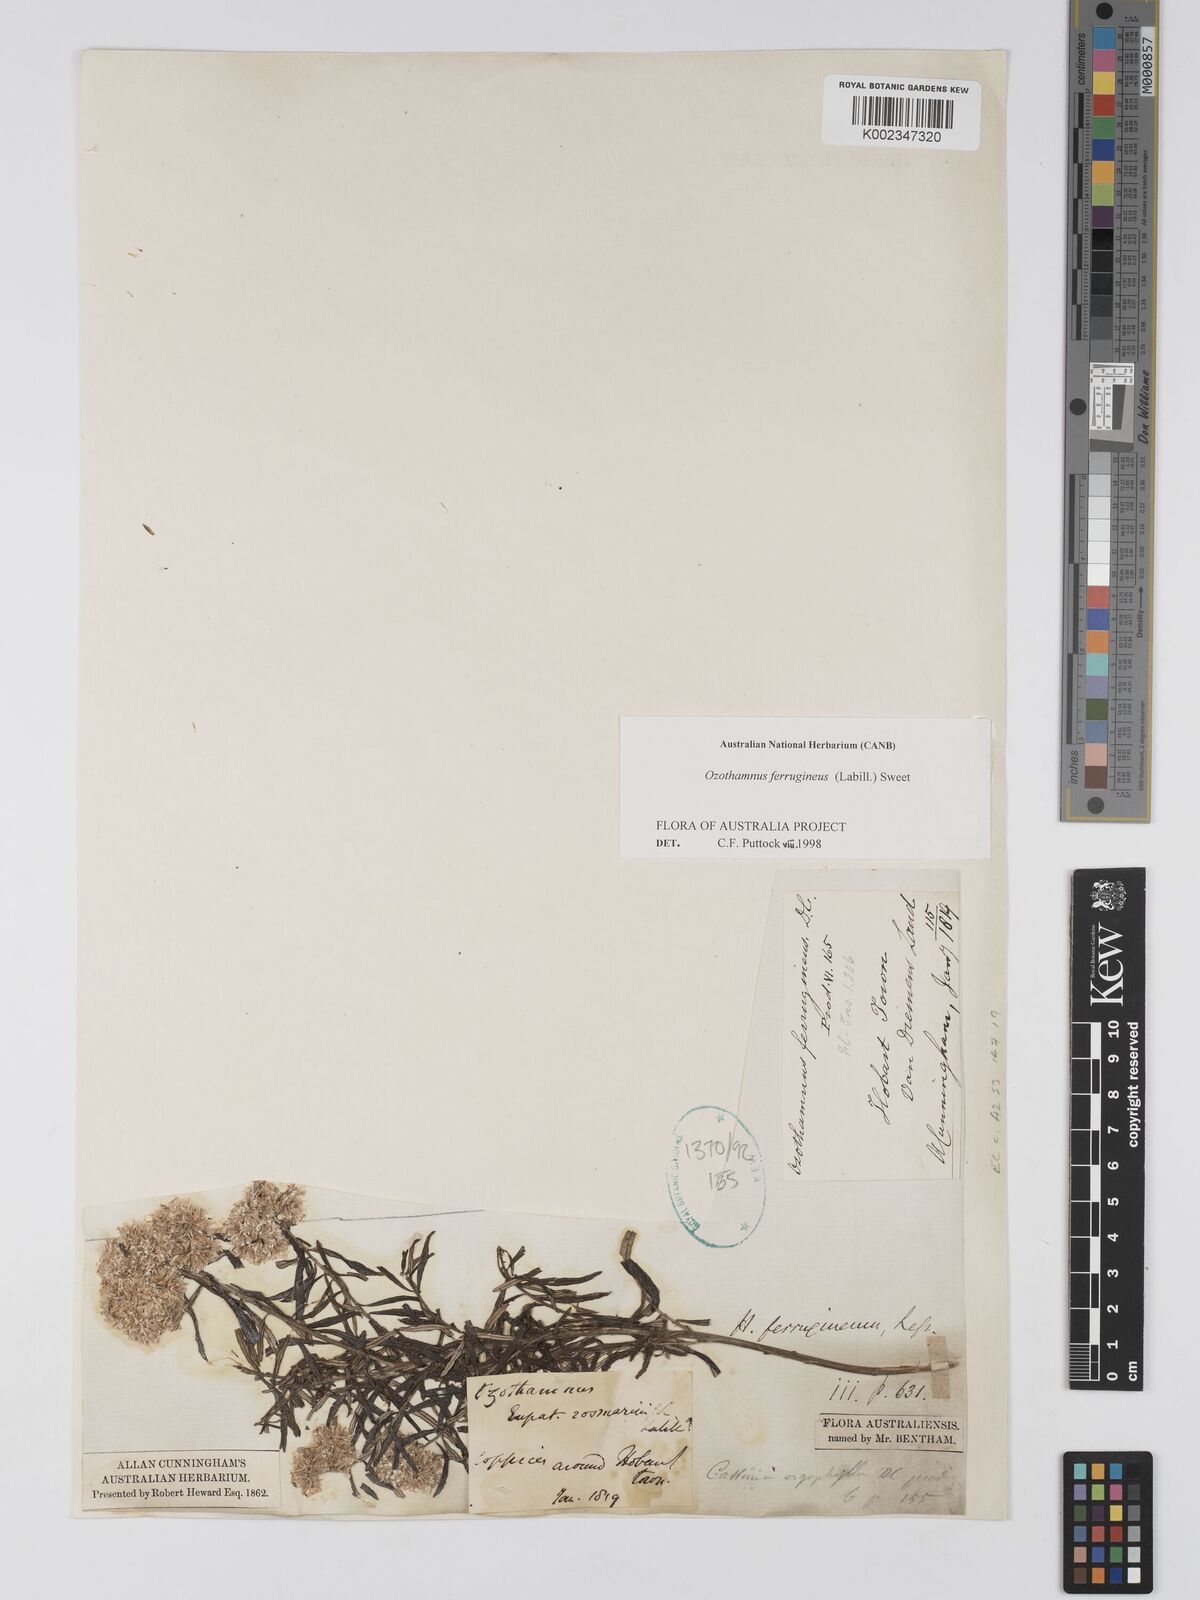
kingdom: Plantae
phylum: Tracheophyta
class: Magnoliopsida
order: Asterales
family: Asteraceae
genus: Ozothamnus
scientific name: Ozothamnus ferrugineus
